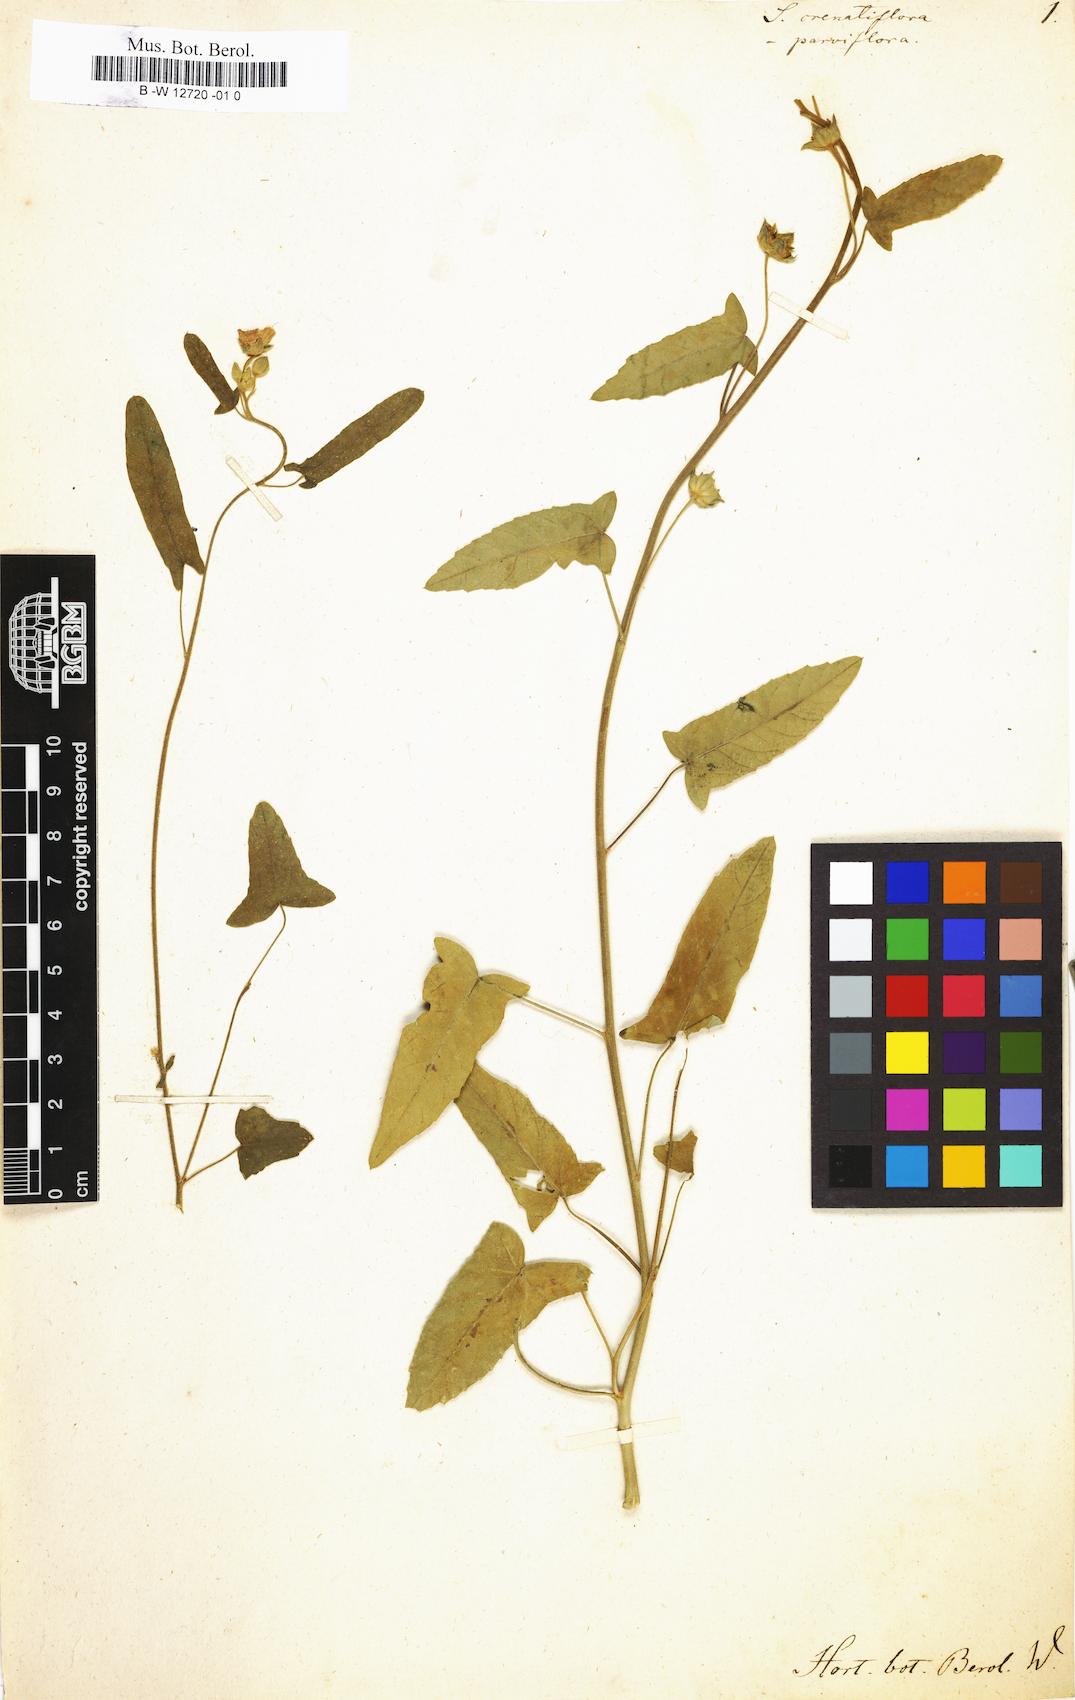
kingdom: Plantae
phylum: Tracheophyta
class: Magnoliopsida
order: Malvales
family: Malvaceae
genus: Anoda
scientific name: Anoda crenatiflora
